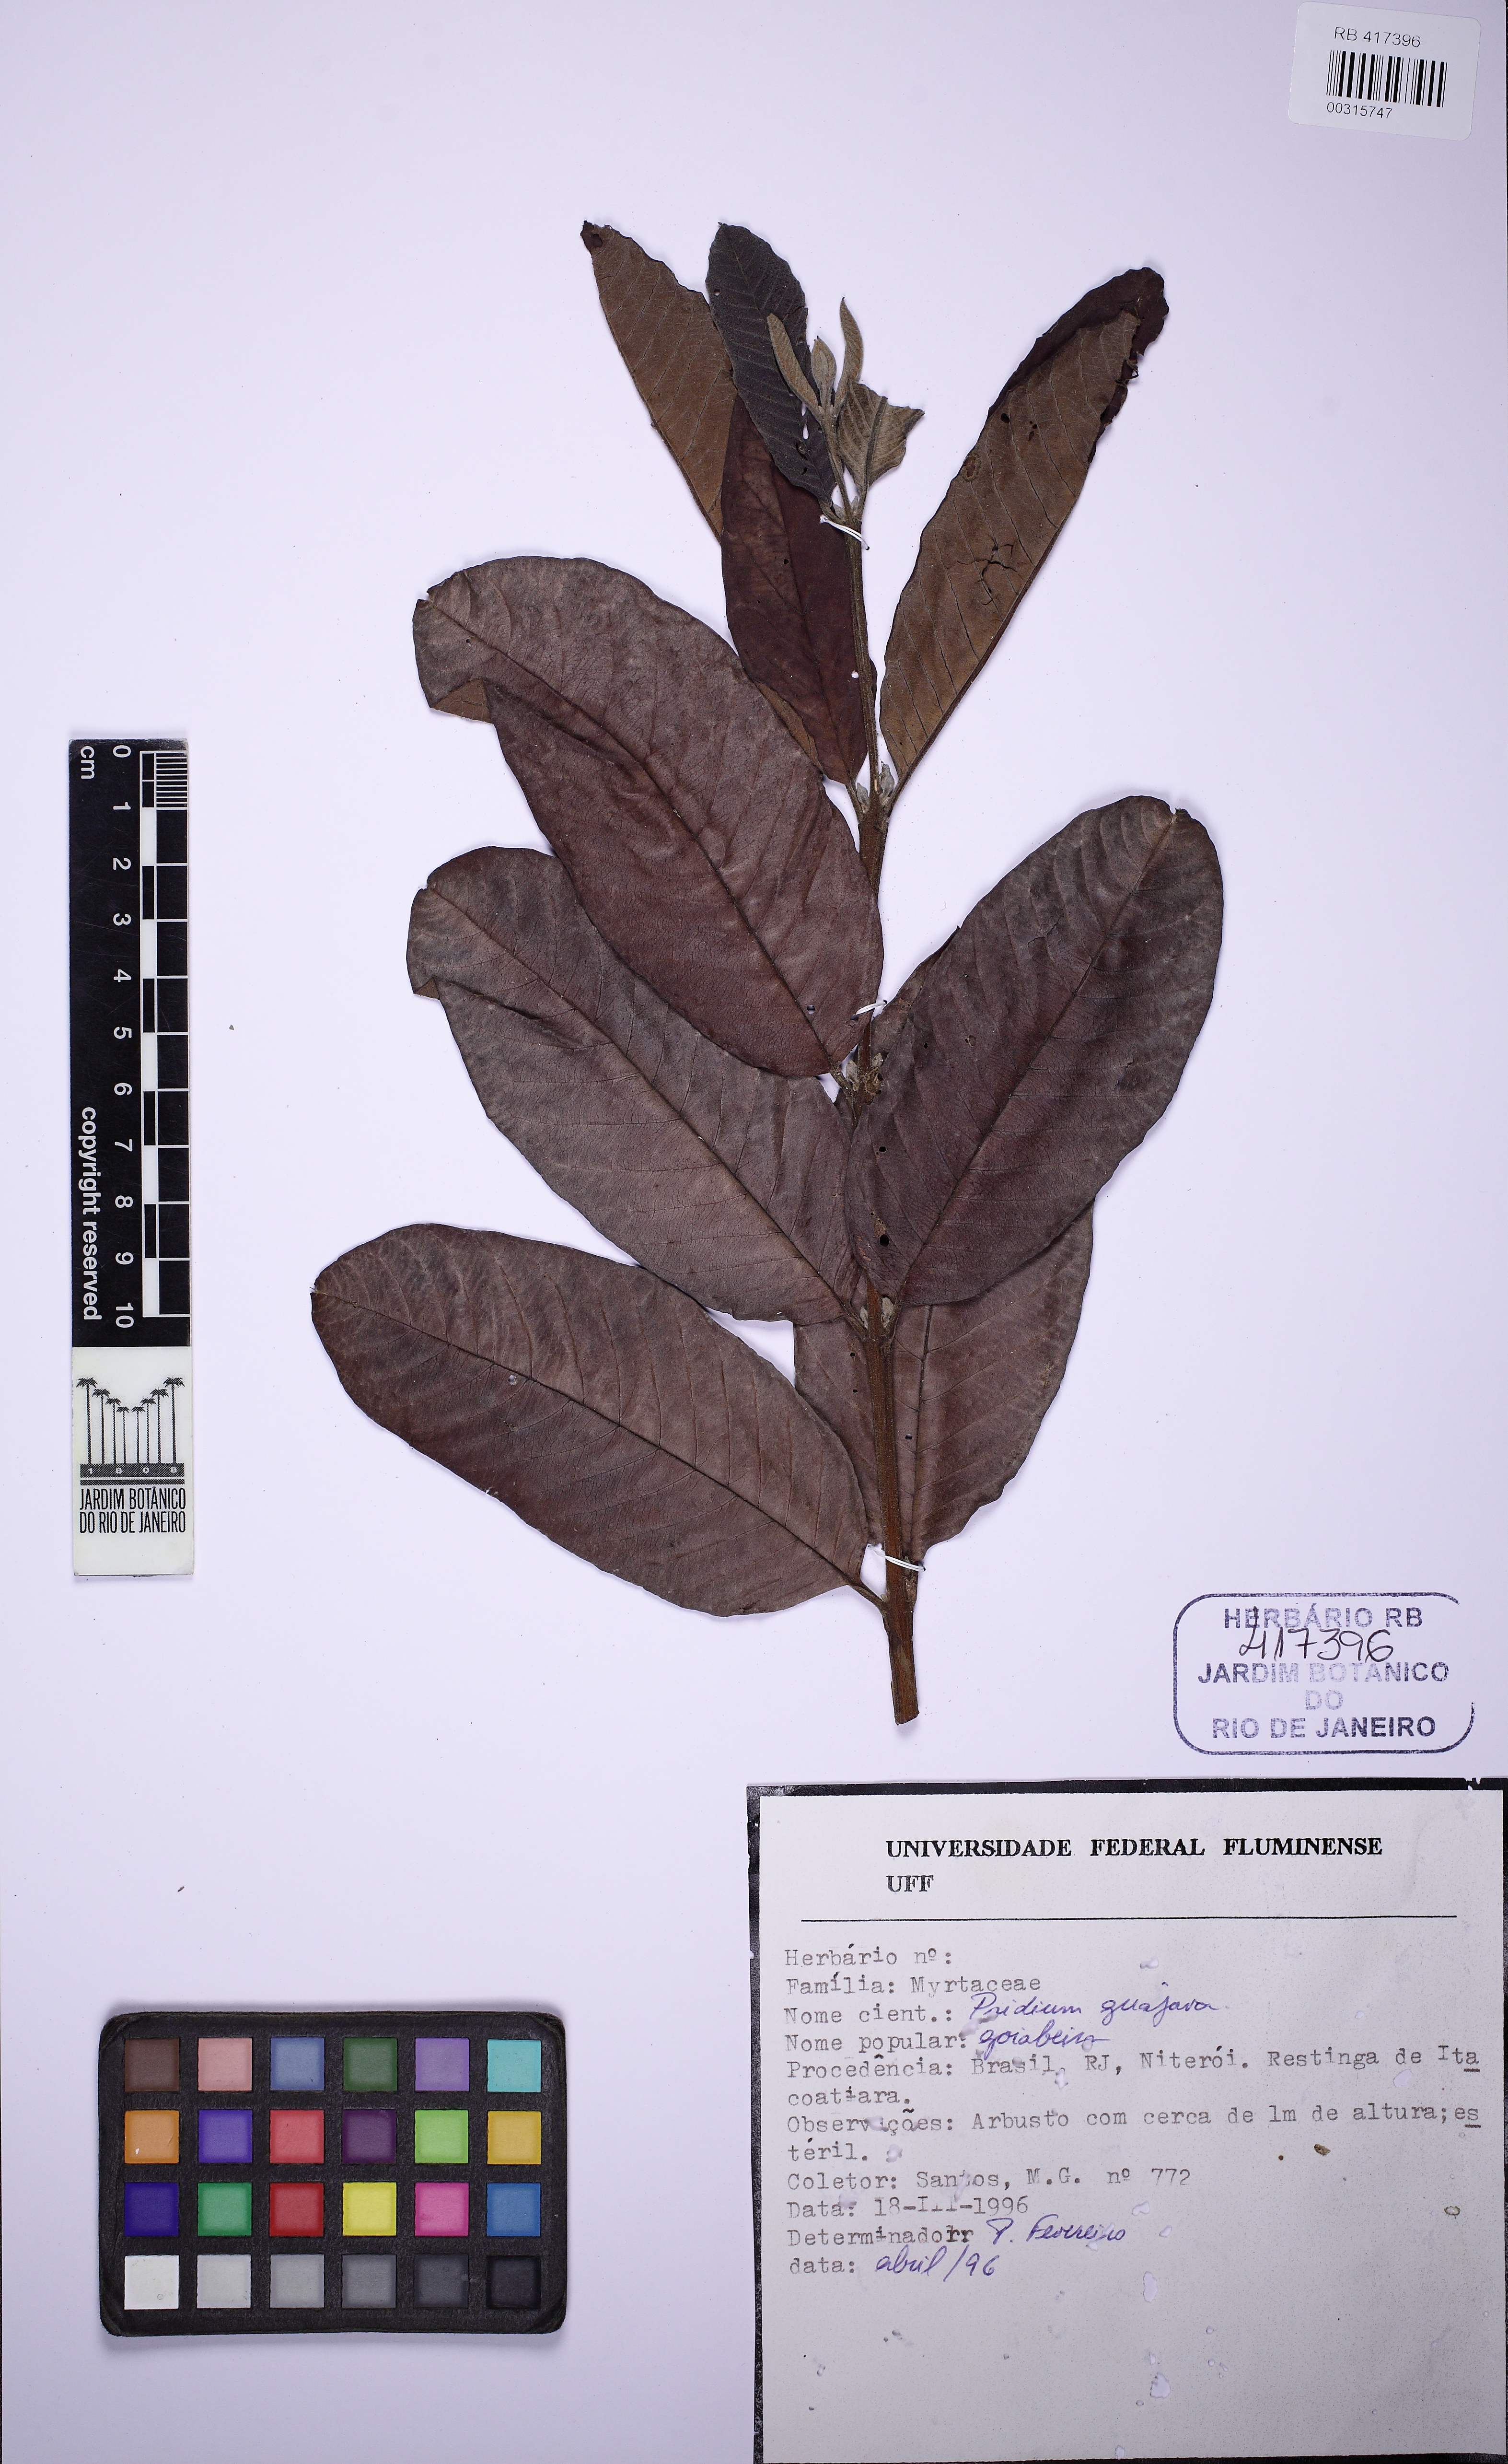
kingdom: Plantae
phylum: Tracheophyta
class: Magnoliopsida
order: Myrtales
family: Myrtaceae
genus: Psidium
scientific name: Psidium guajava
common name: Guava
